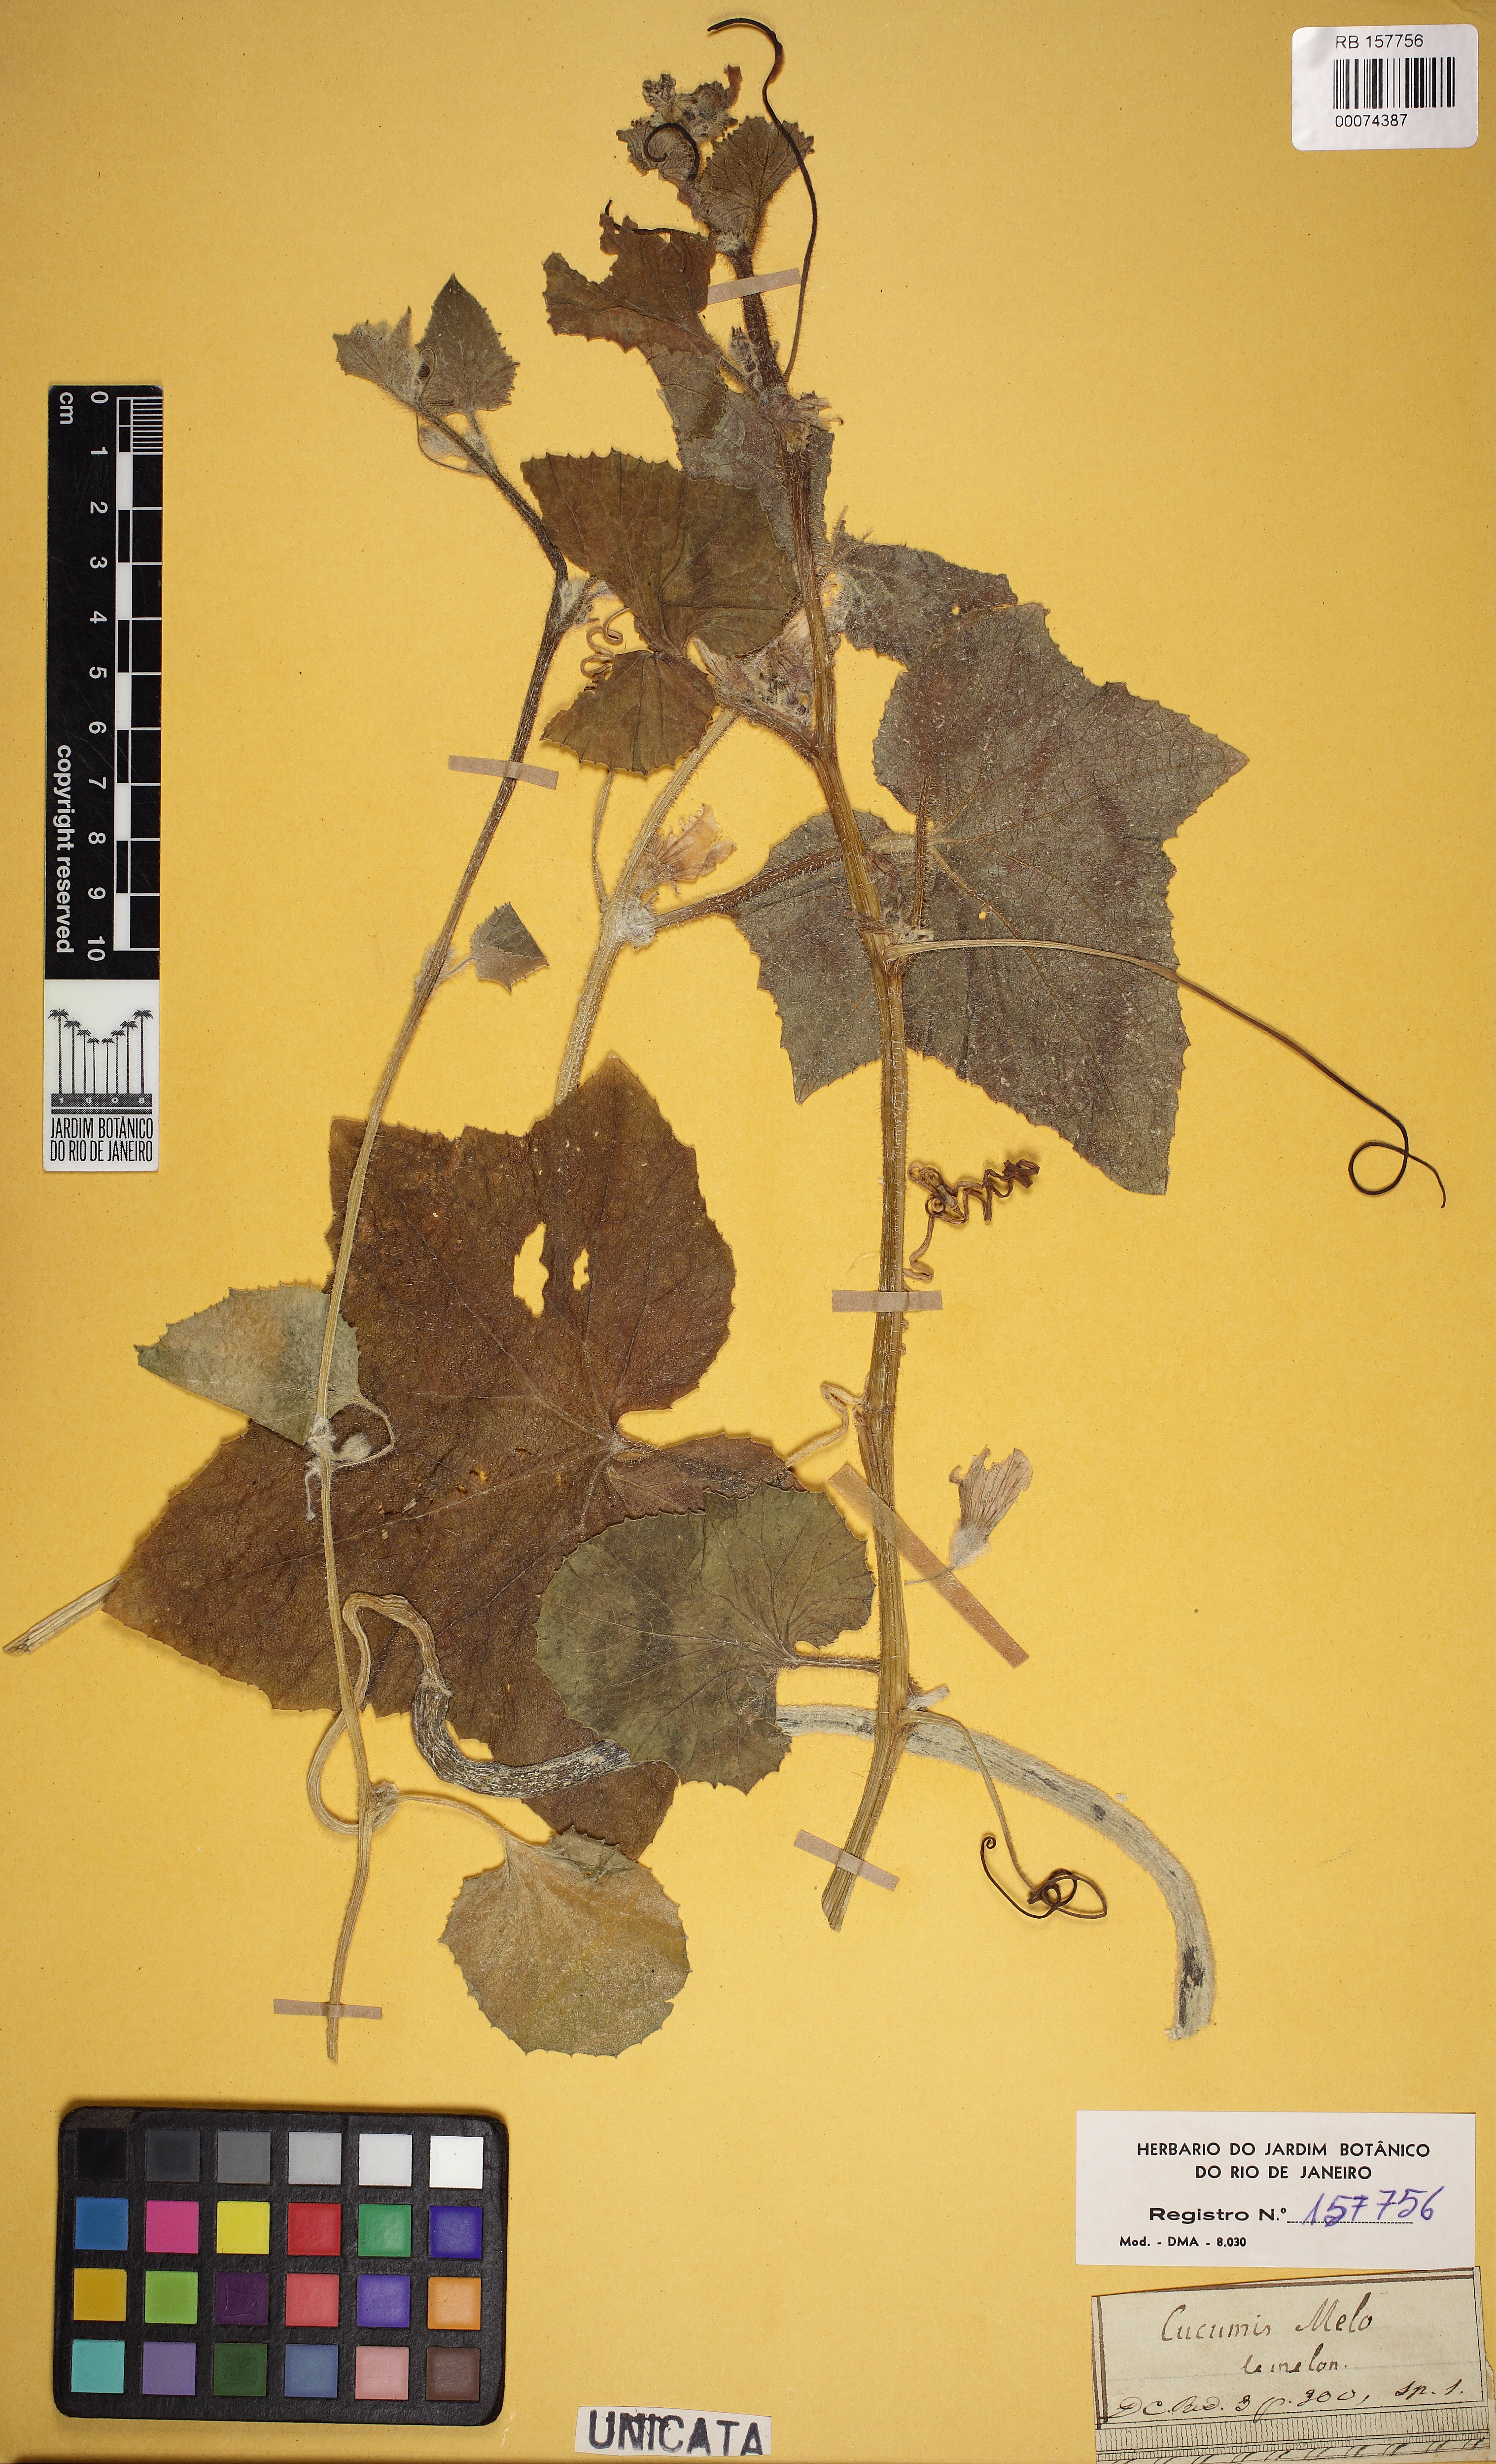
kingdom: Plantae
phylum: Tracheophyta
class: Magnoliopsida
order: Cucurbitales
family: Cucurbitaceae
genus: Cucumis
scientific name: Cucumis melo
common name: Melon
